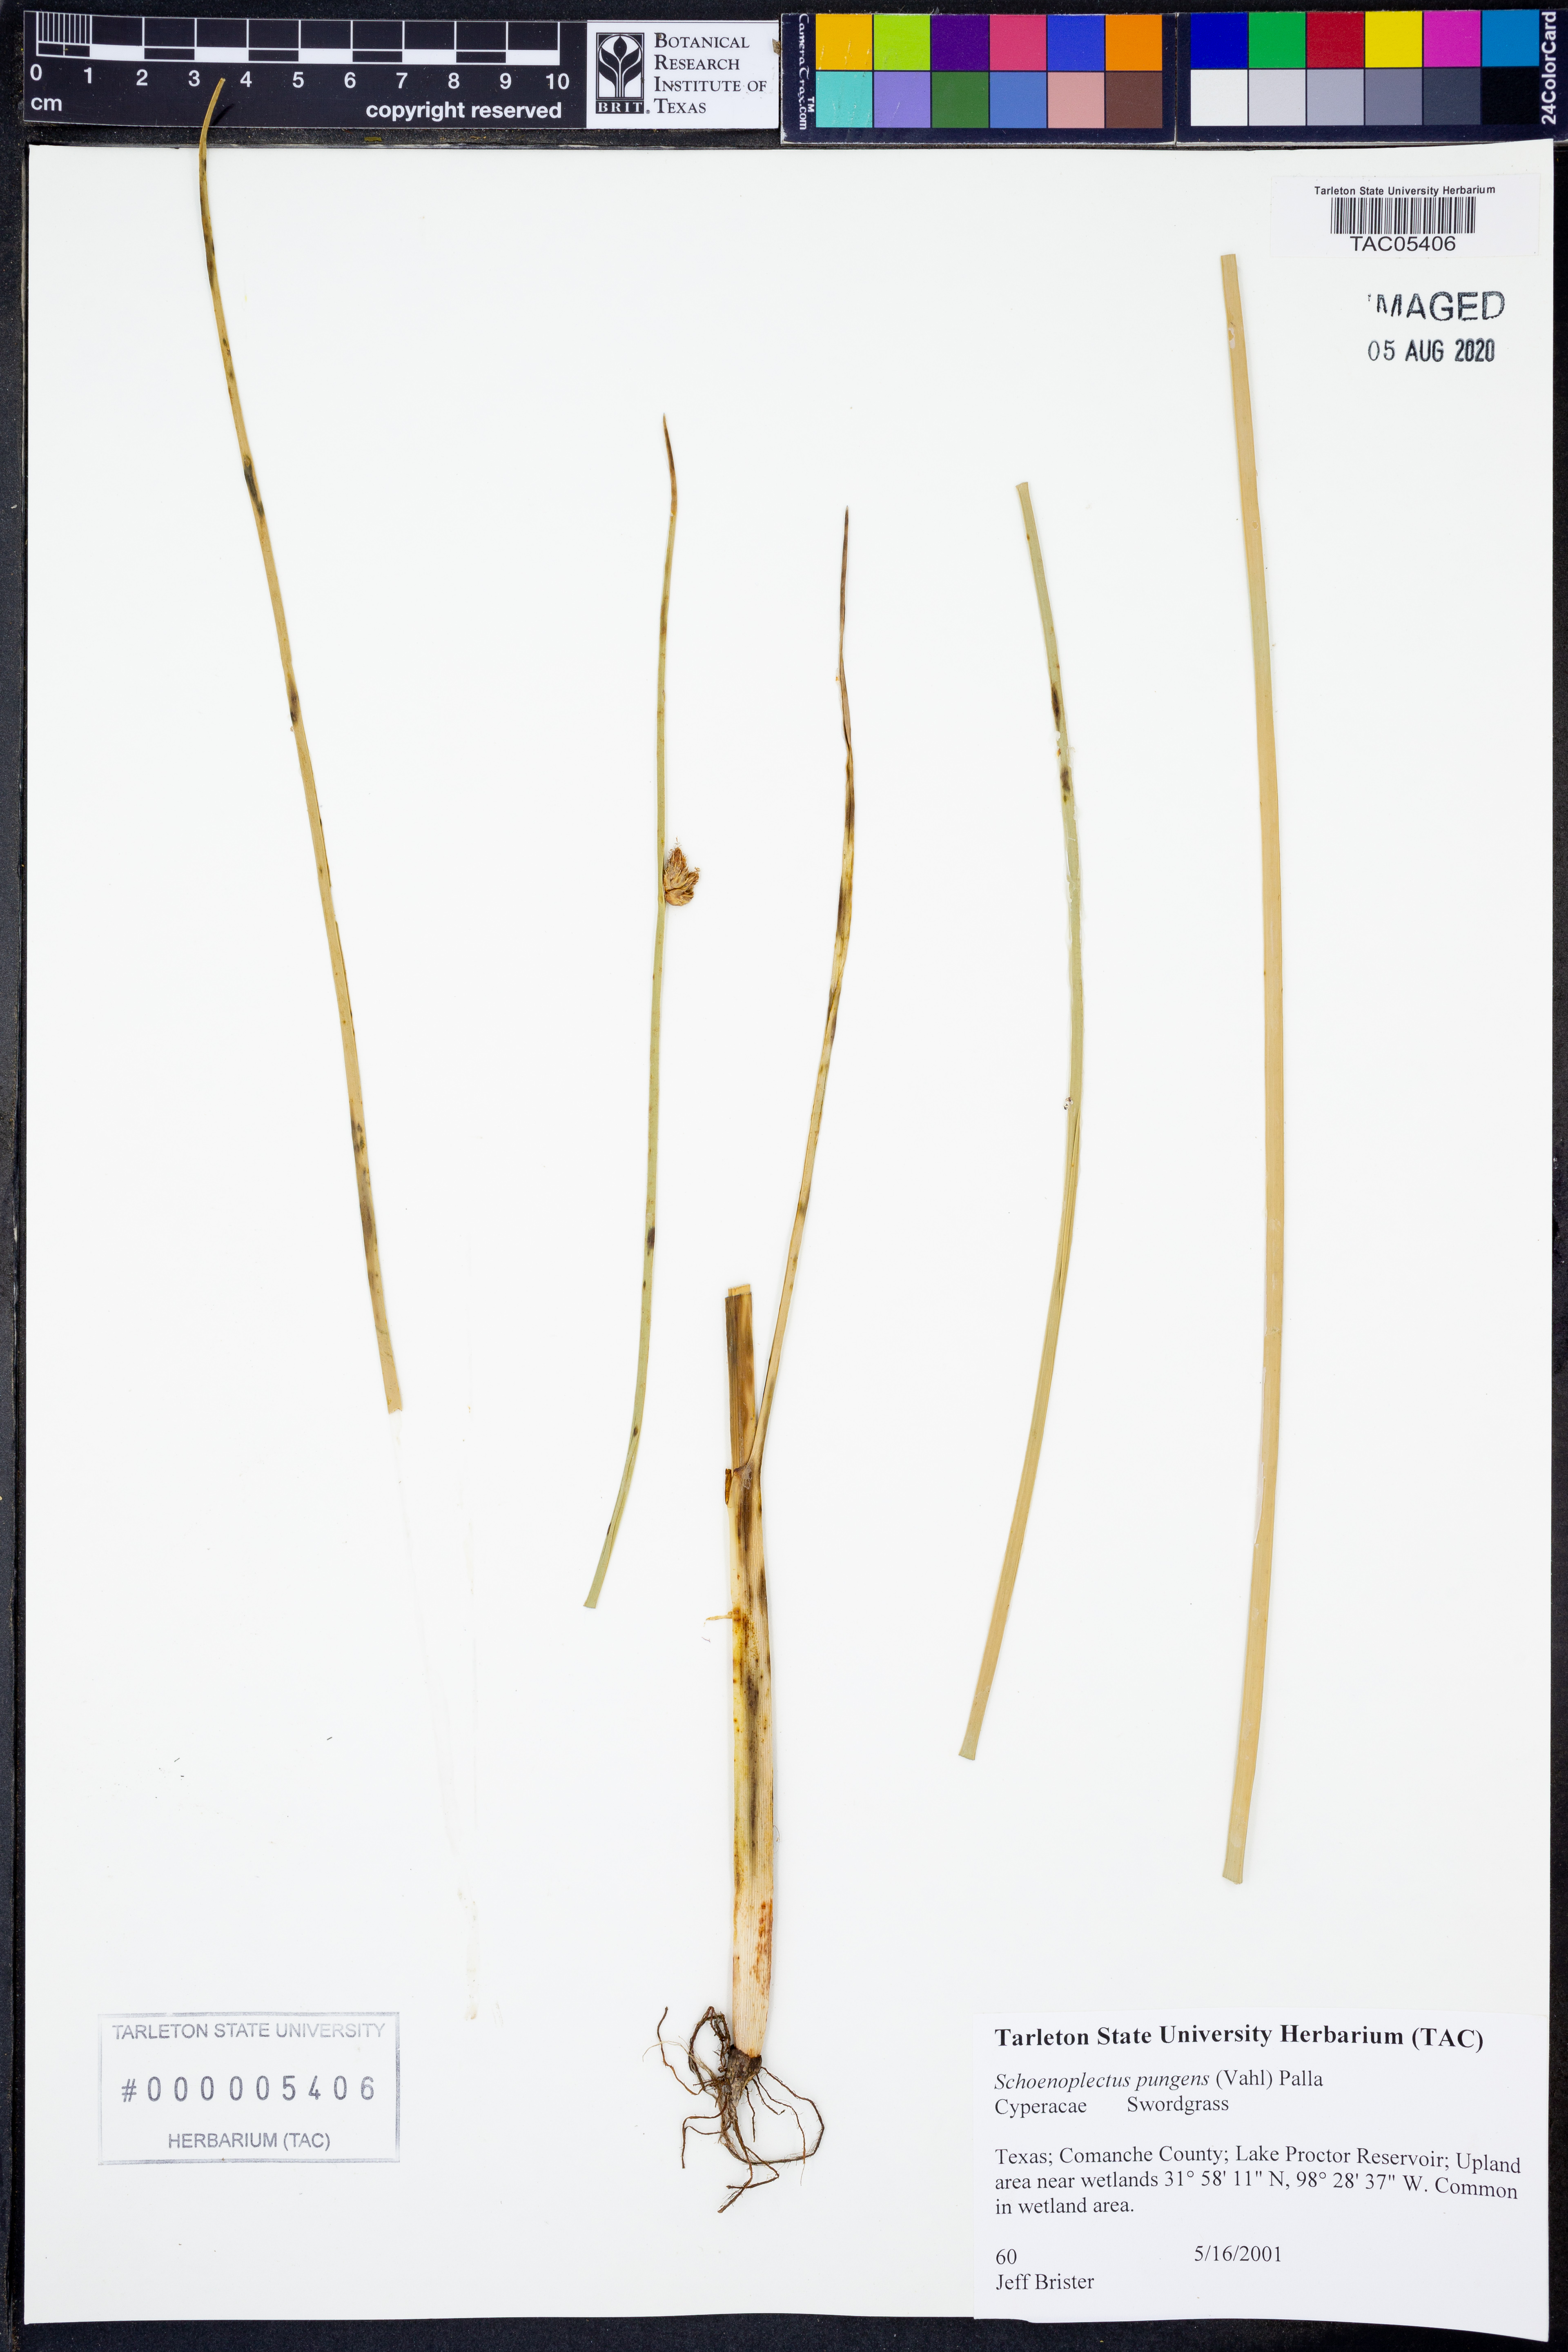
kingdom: Plantae
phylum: Tracheophyta
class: Liliopsida
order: Poales
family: Cyperaceae
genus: Schoenoplectus
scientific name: Schoenoplectus pungens
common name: Sharp club-rush
